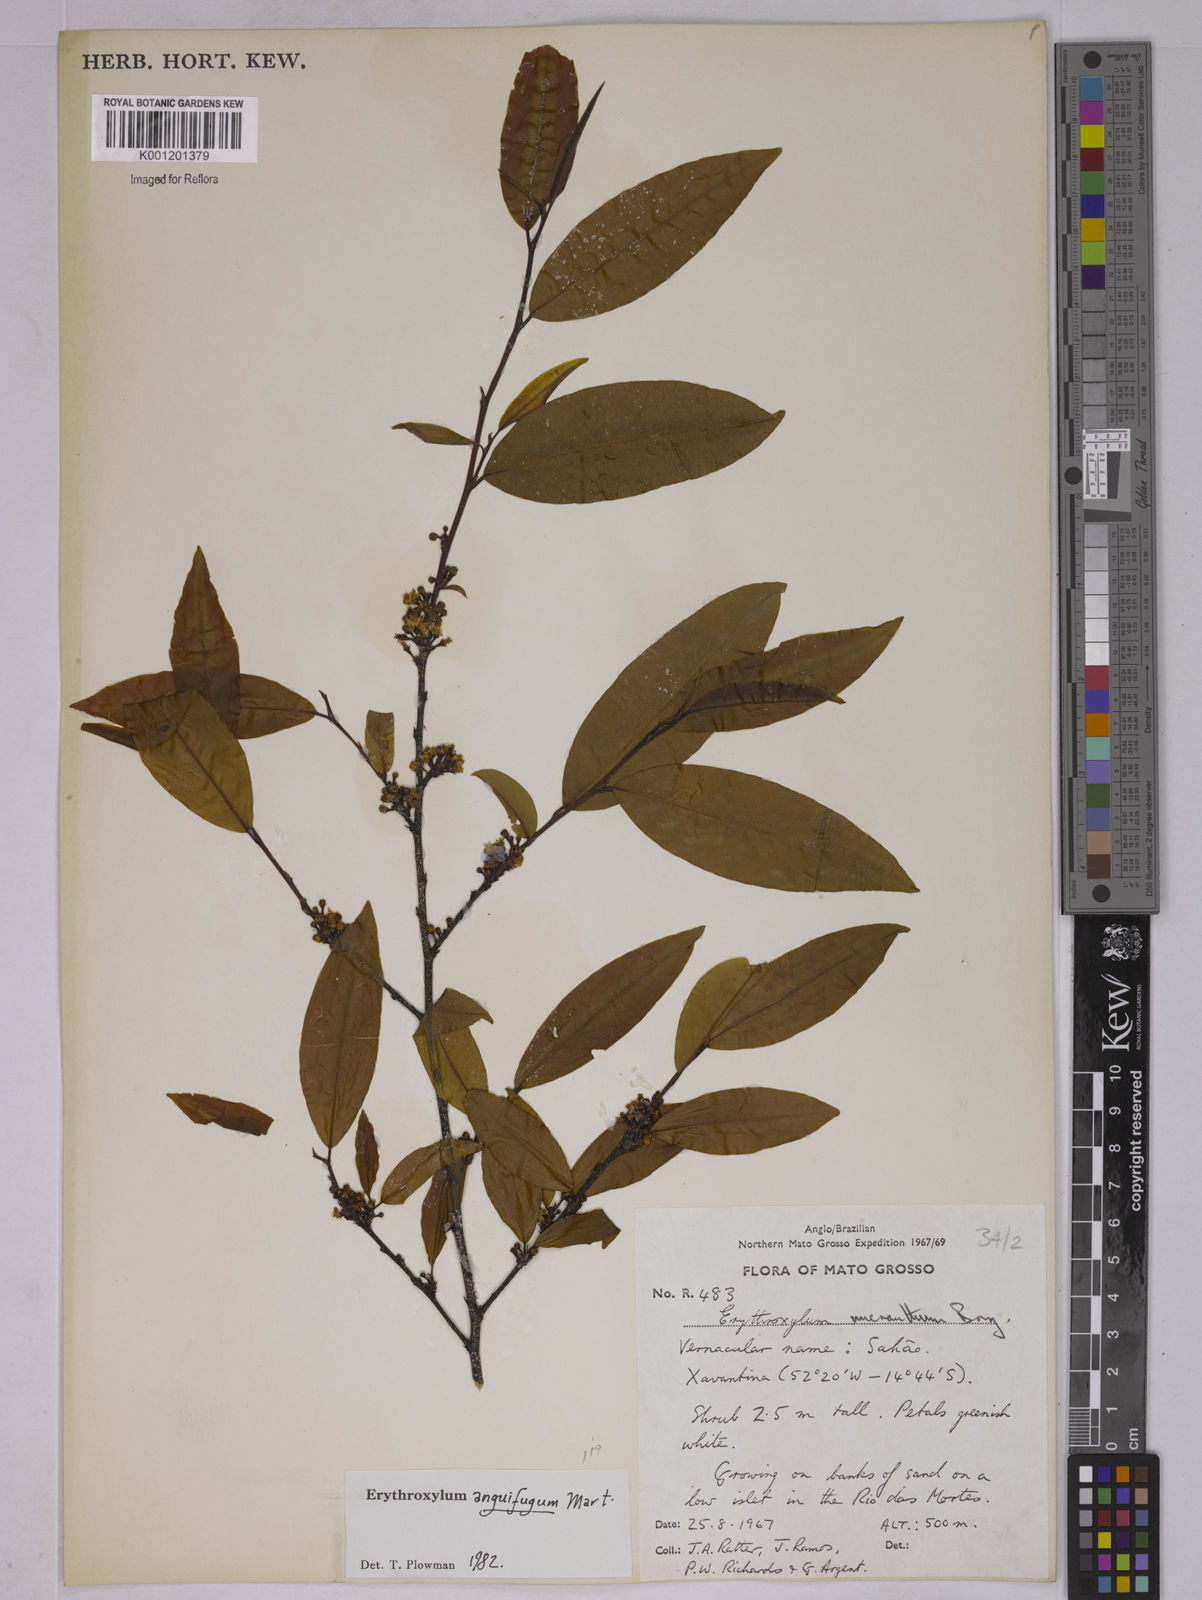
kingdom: Plantae
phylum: Tracheophyta
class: Magnoliopsida
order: Malpighiales
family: Erythroxylaceae
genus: Erythroxylum
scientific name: Erythroxylum anguifugum
